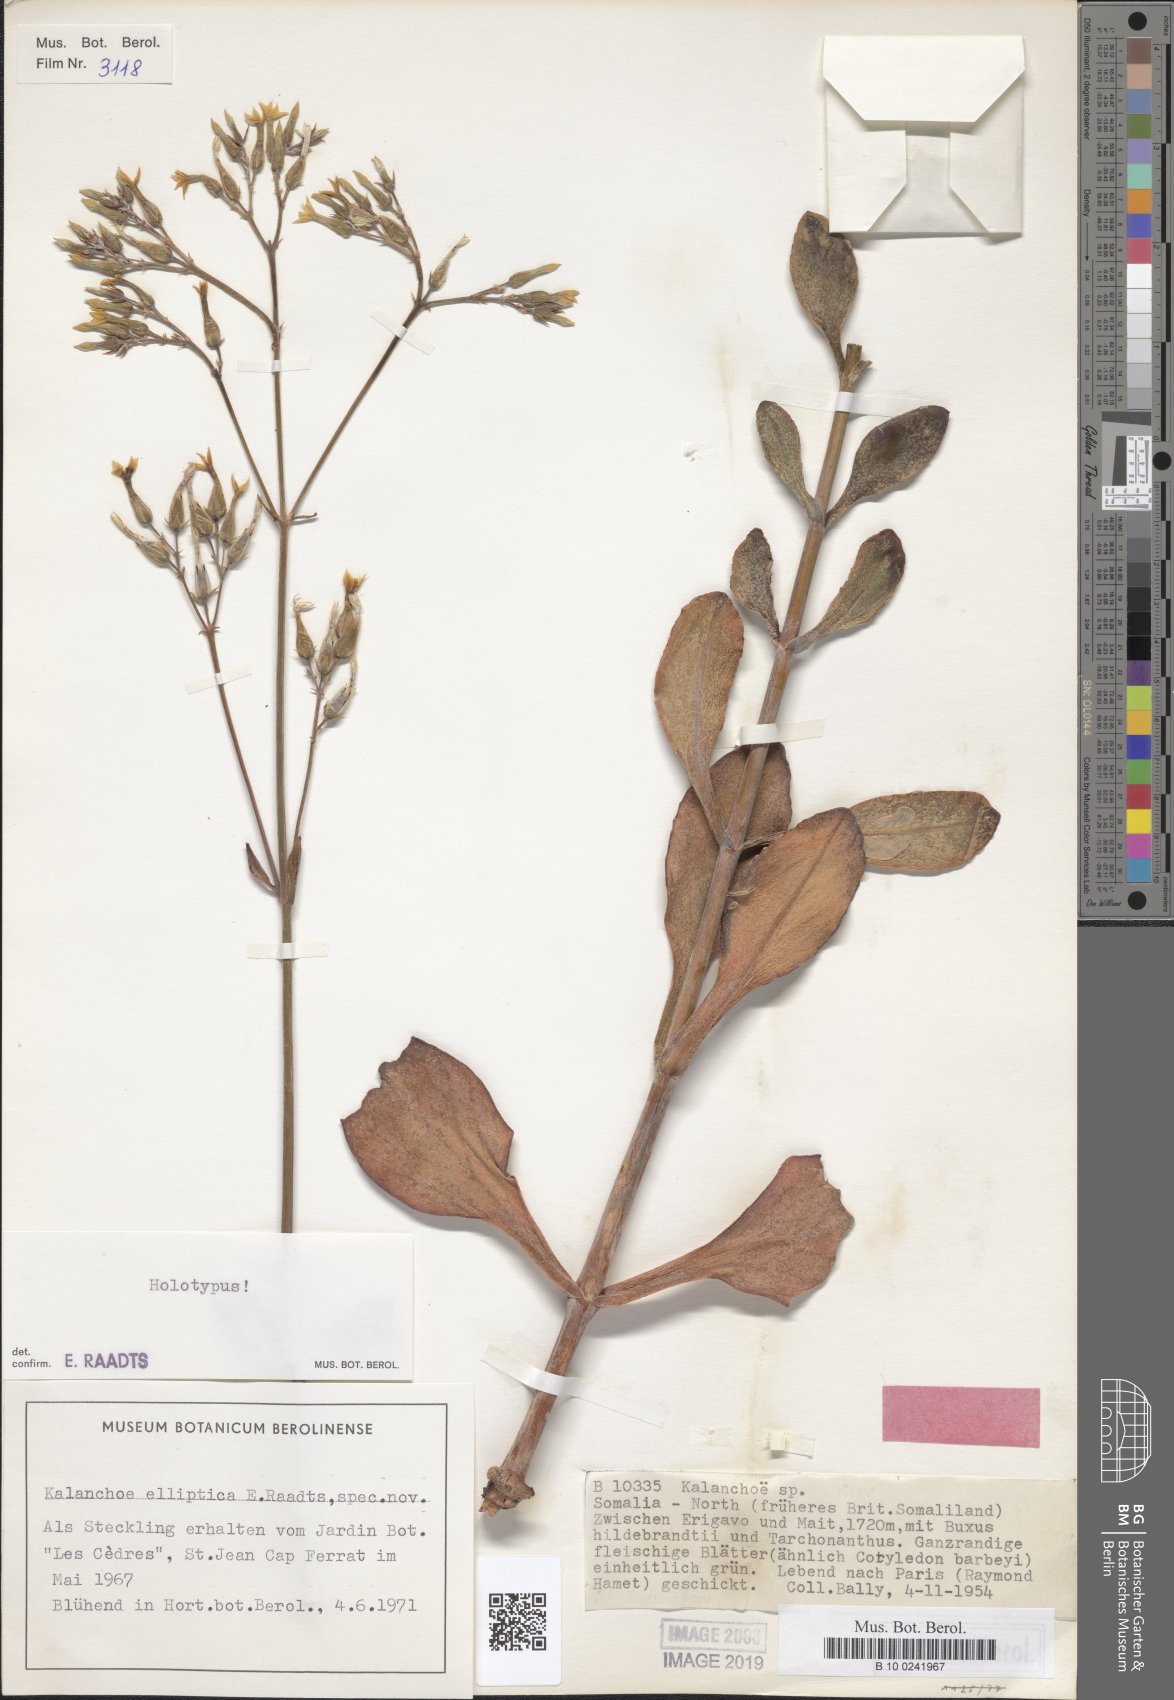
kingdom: Plantae
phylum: Tracheophyta
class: Magnoliopsida
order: Saxifragales
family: Crassulaceae
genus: Kalanchoe
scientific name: Kalanchoe glaucescens
